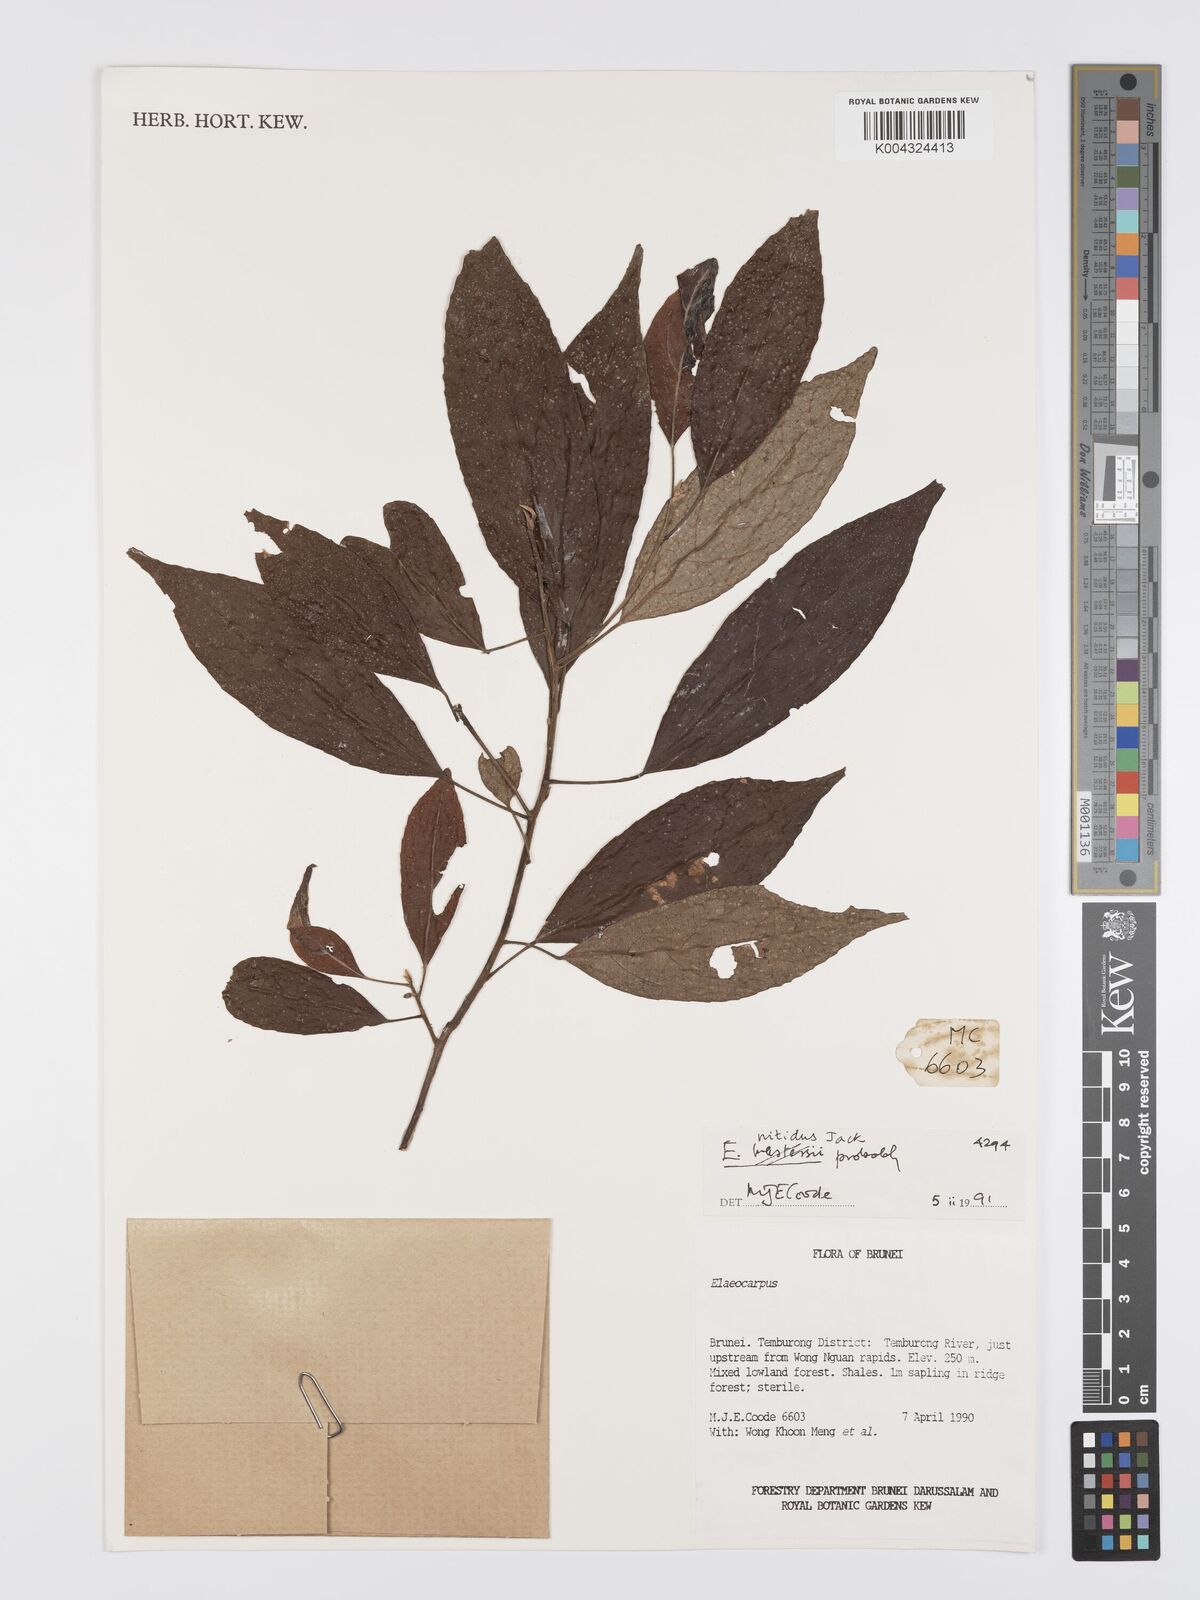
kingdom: Plantae
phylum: Tracheophyta
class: Magnoliopsida
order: Oxalidales
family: Elaeocarpaceae
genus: Elaeocarpus
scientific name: Elaeocarpus nitidus
